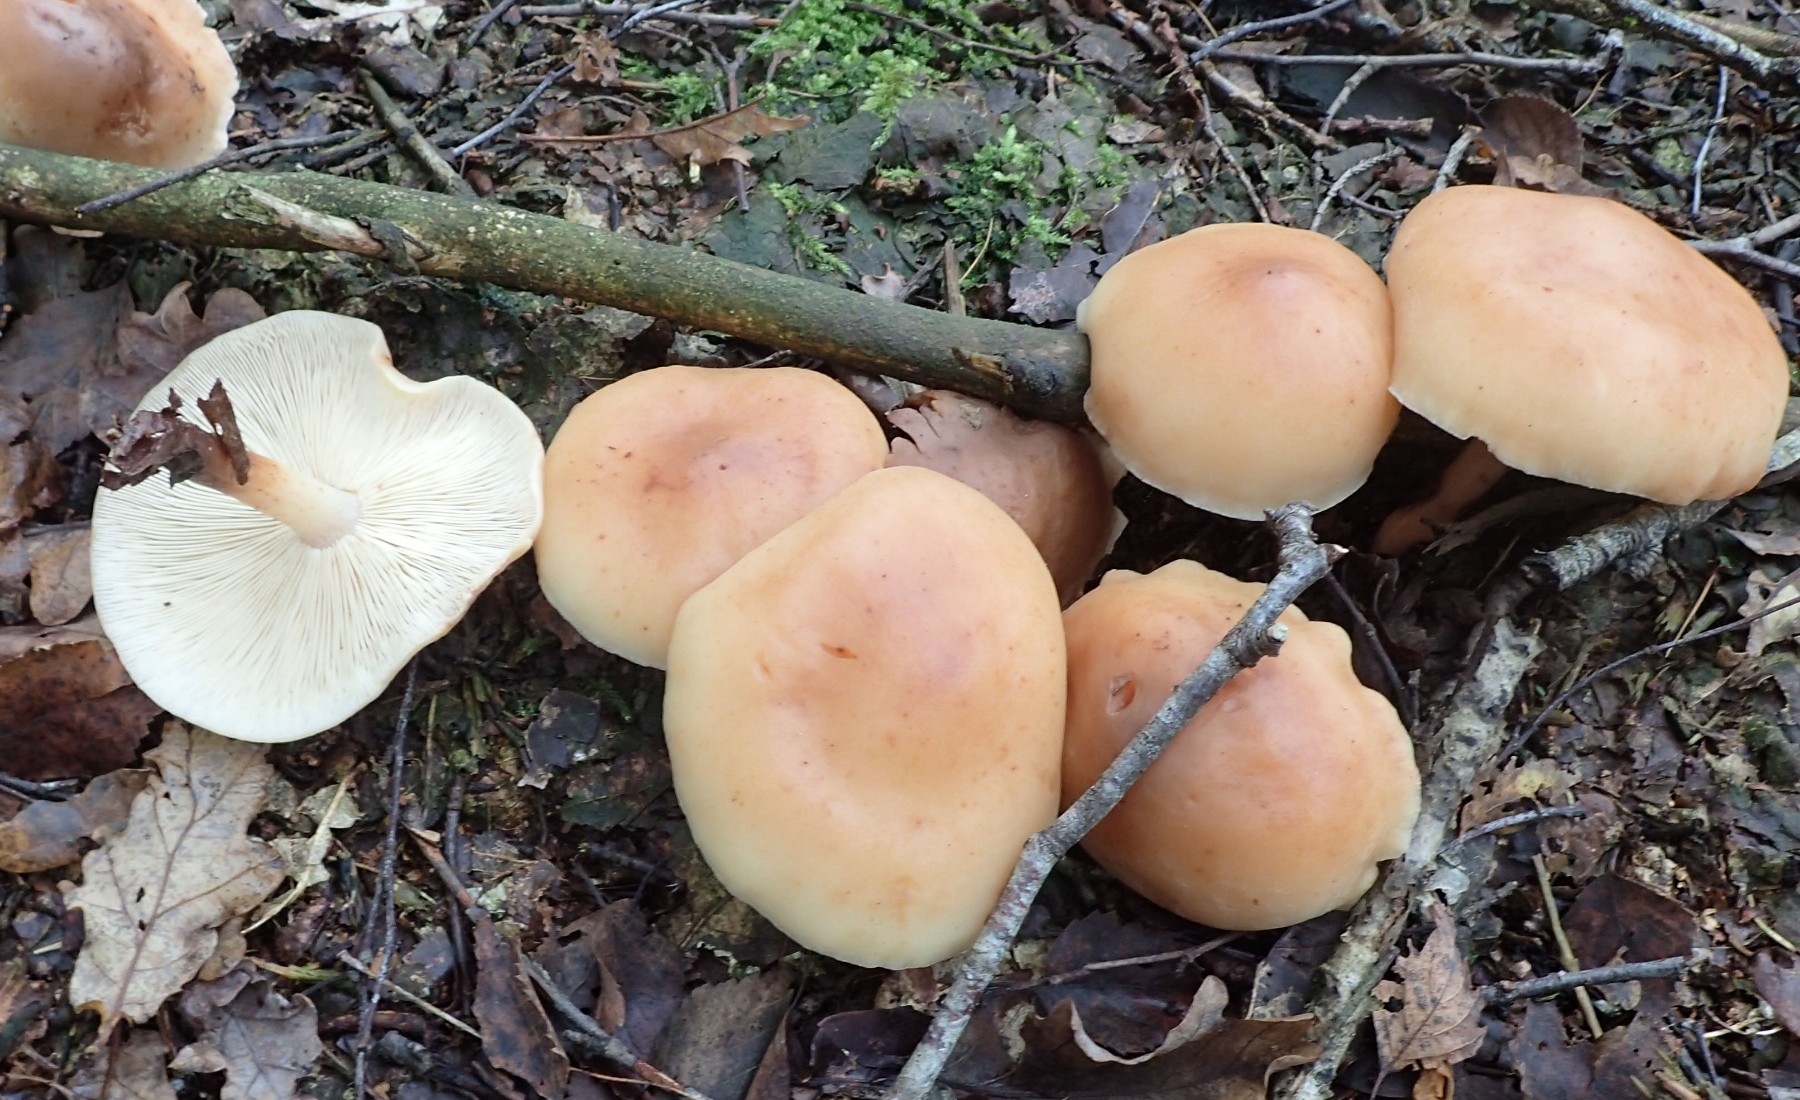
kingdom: Fungi
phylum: Basidiomycota
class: Agaricomycetes
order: Agaricales
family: Omphalotaceae
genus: Rhodocollybia
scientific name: Rhodocollybia maculata
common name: plettet fladhat
